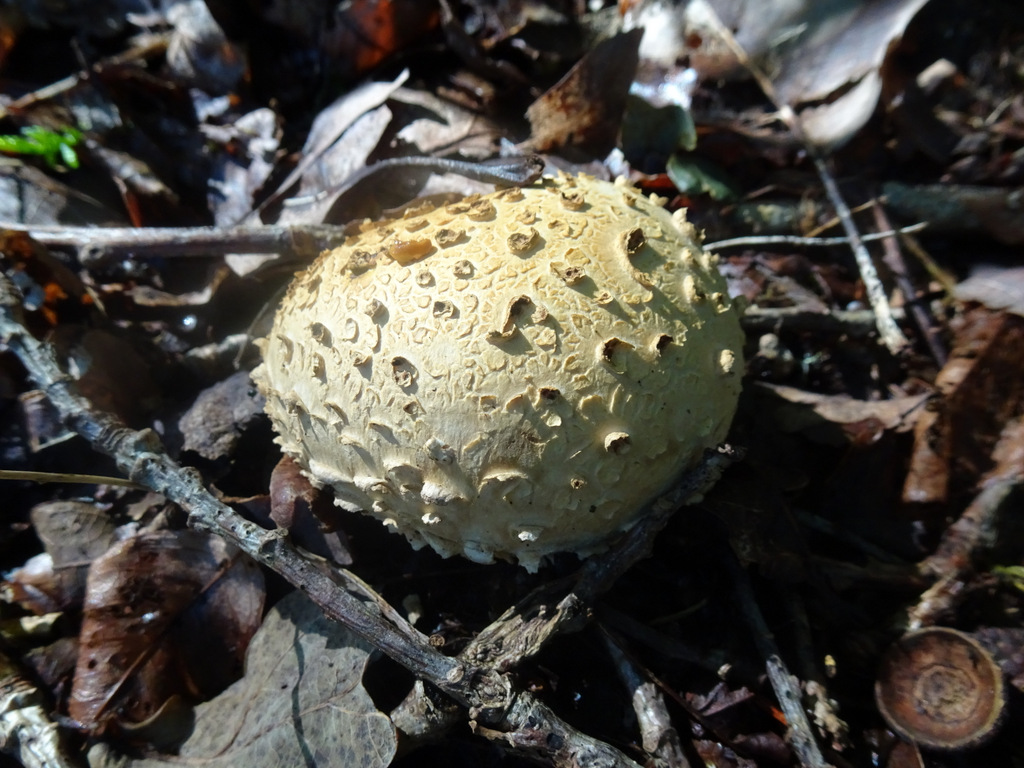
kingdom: Fungi
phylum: Basidiomycota
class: Agaricomycetes
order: Boletales
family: Sclerodermataceae
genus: Scleroderma
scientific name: Scleroderma citrinum
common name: almindelig bruskbold
